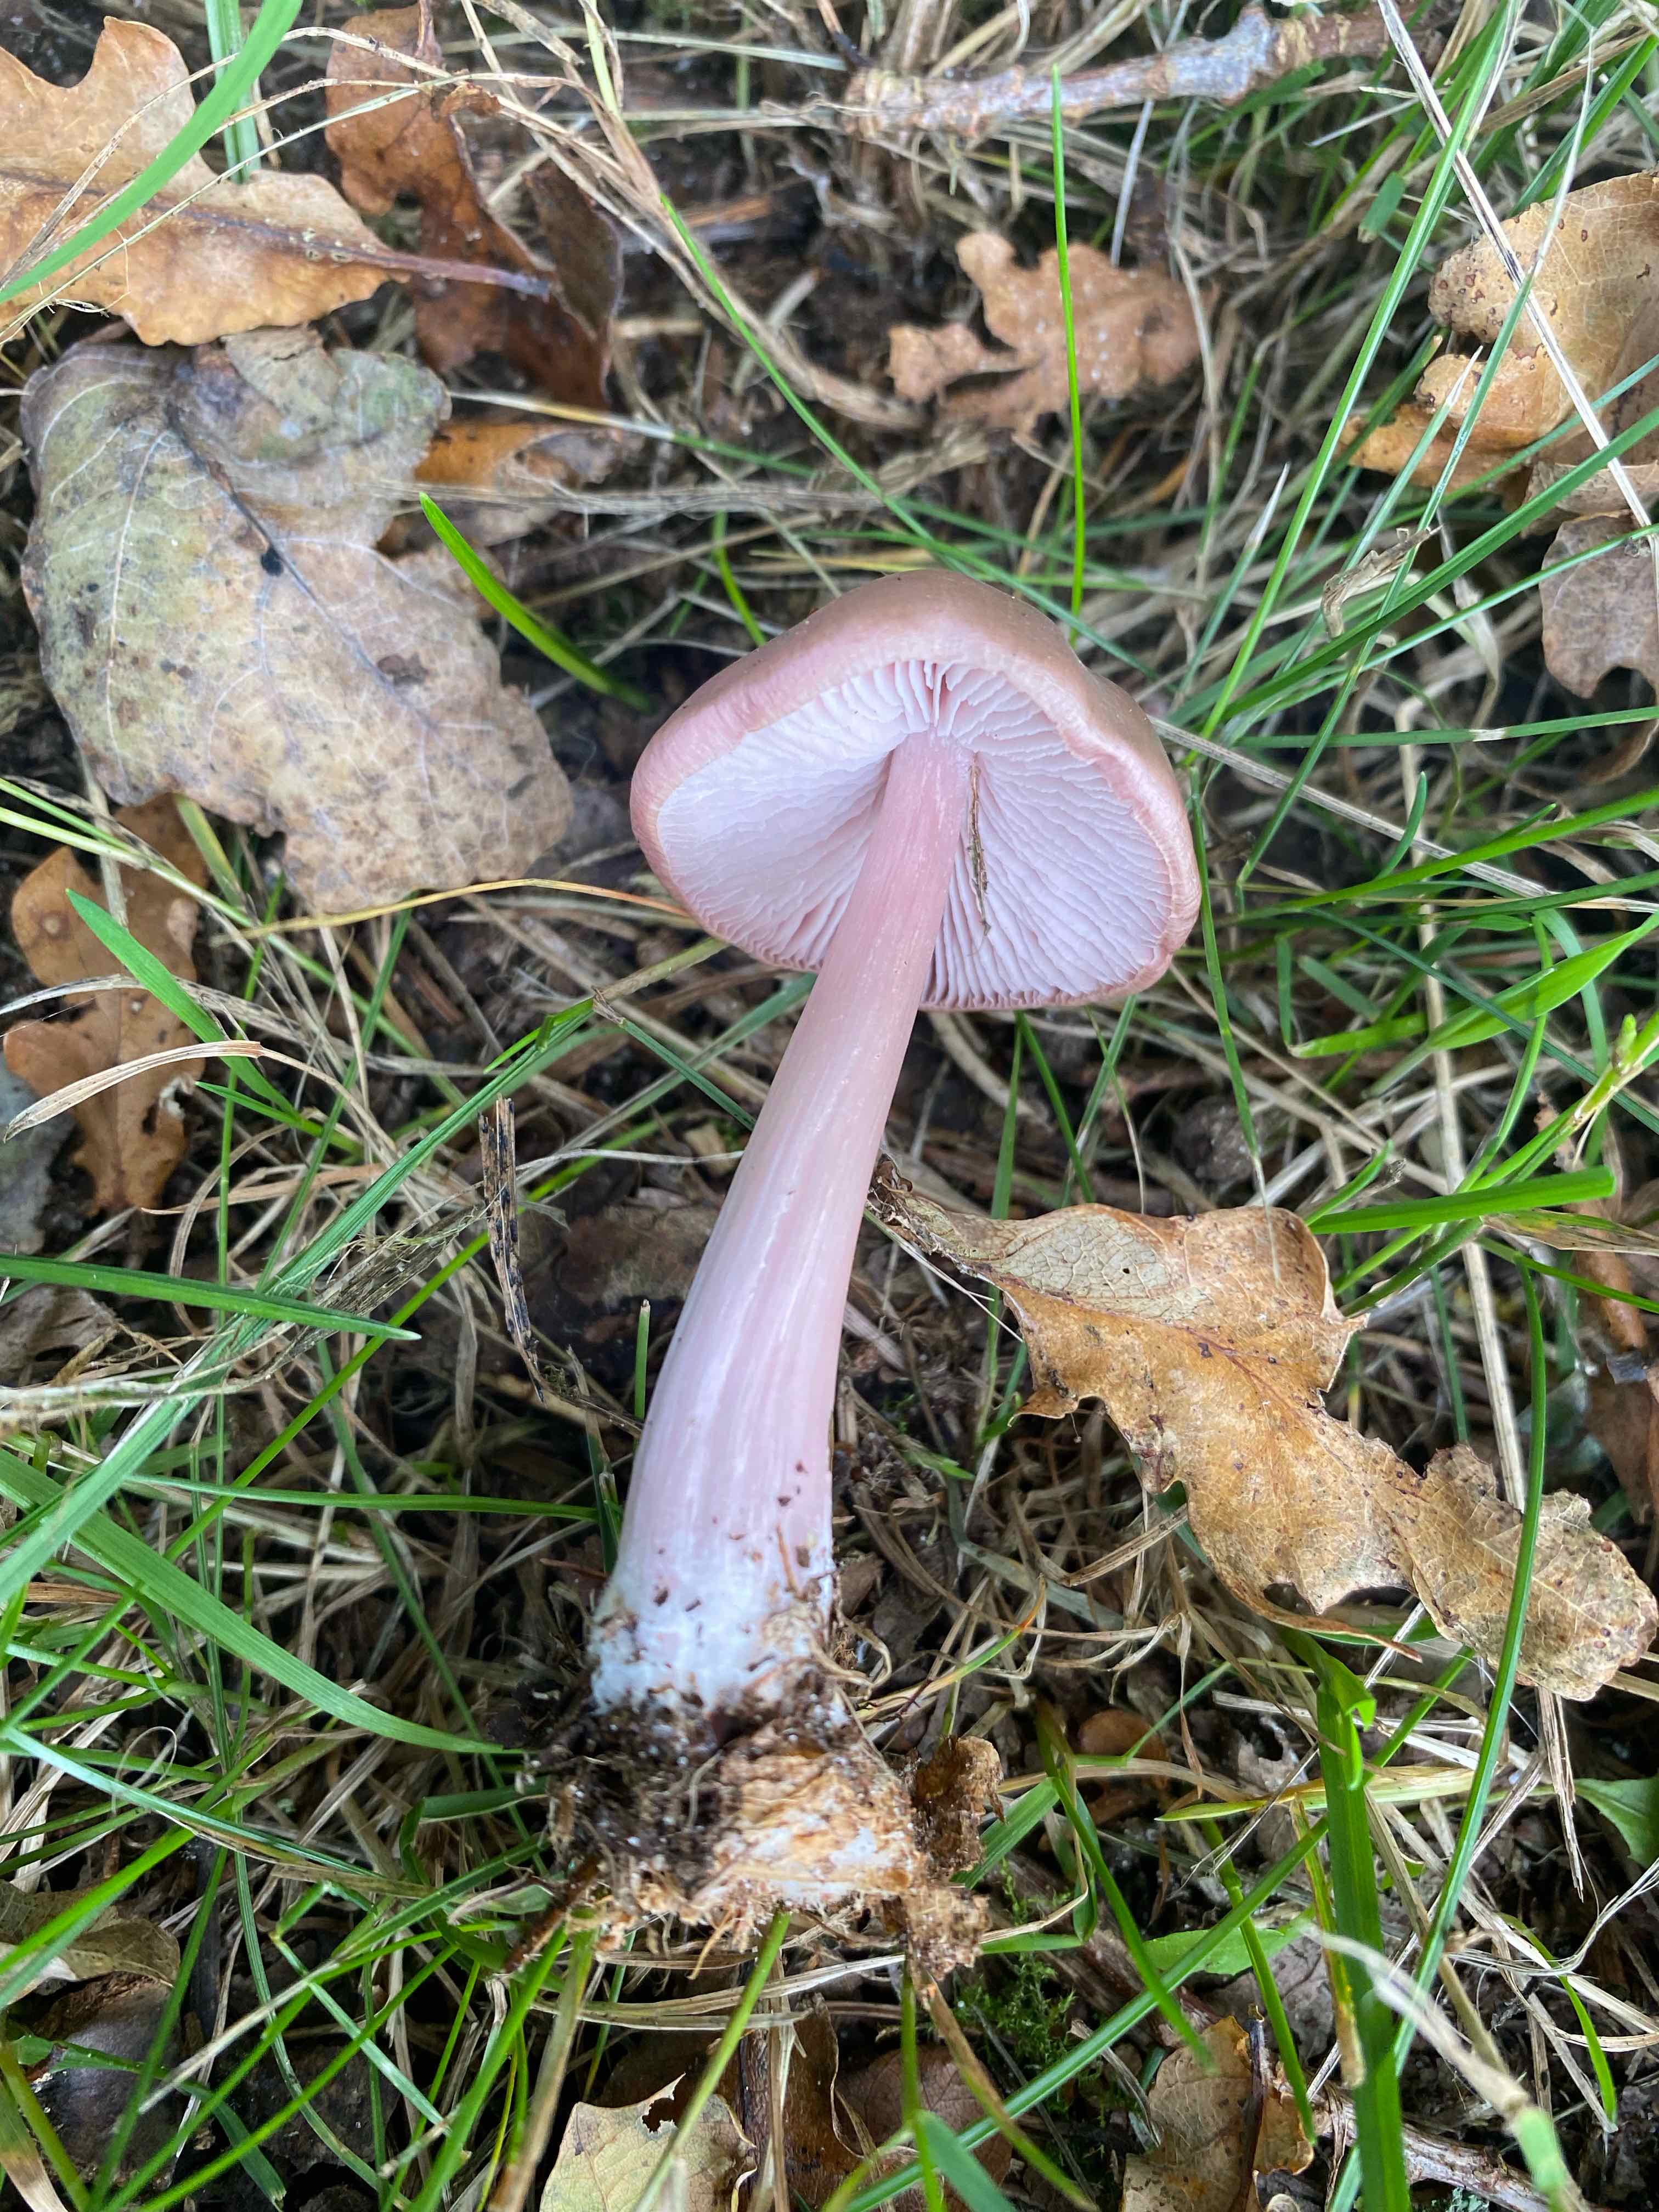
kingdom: Fungi
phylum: Basidiomycota
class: Agaricomycetes
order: Agaricales
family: Mycenaceae
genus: Mycena
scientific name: Mycena rosea
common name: rosa huesvamp
